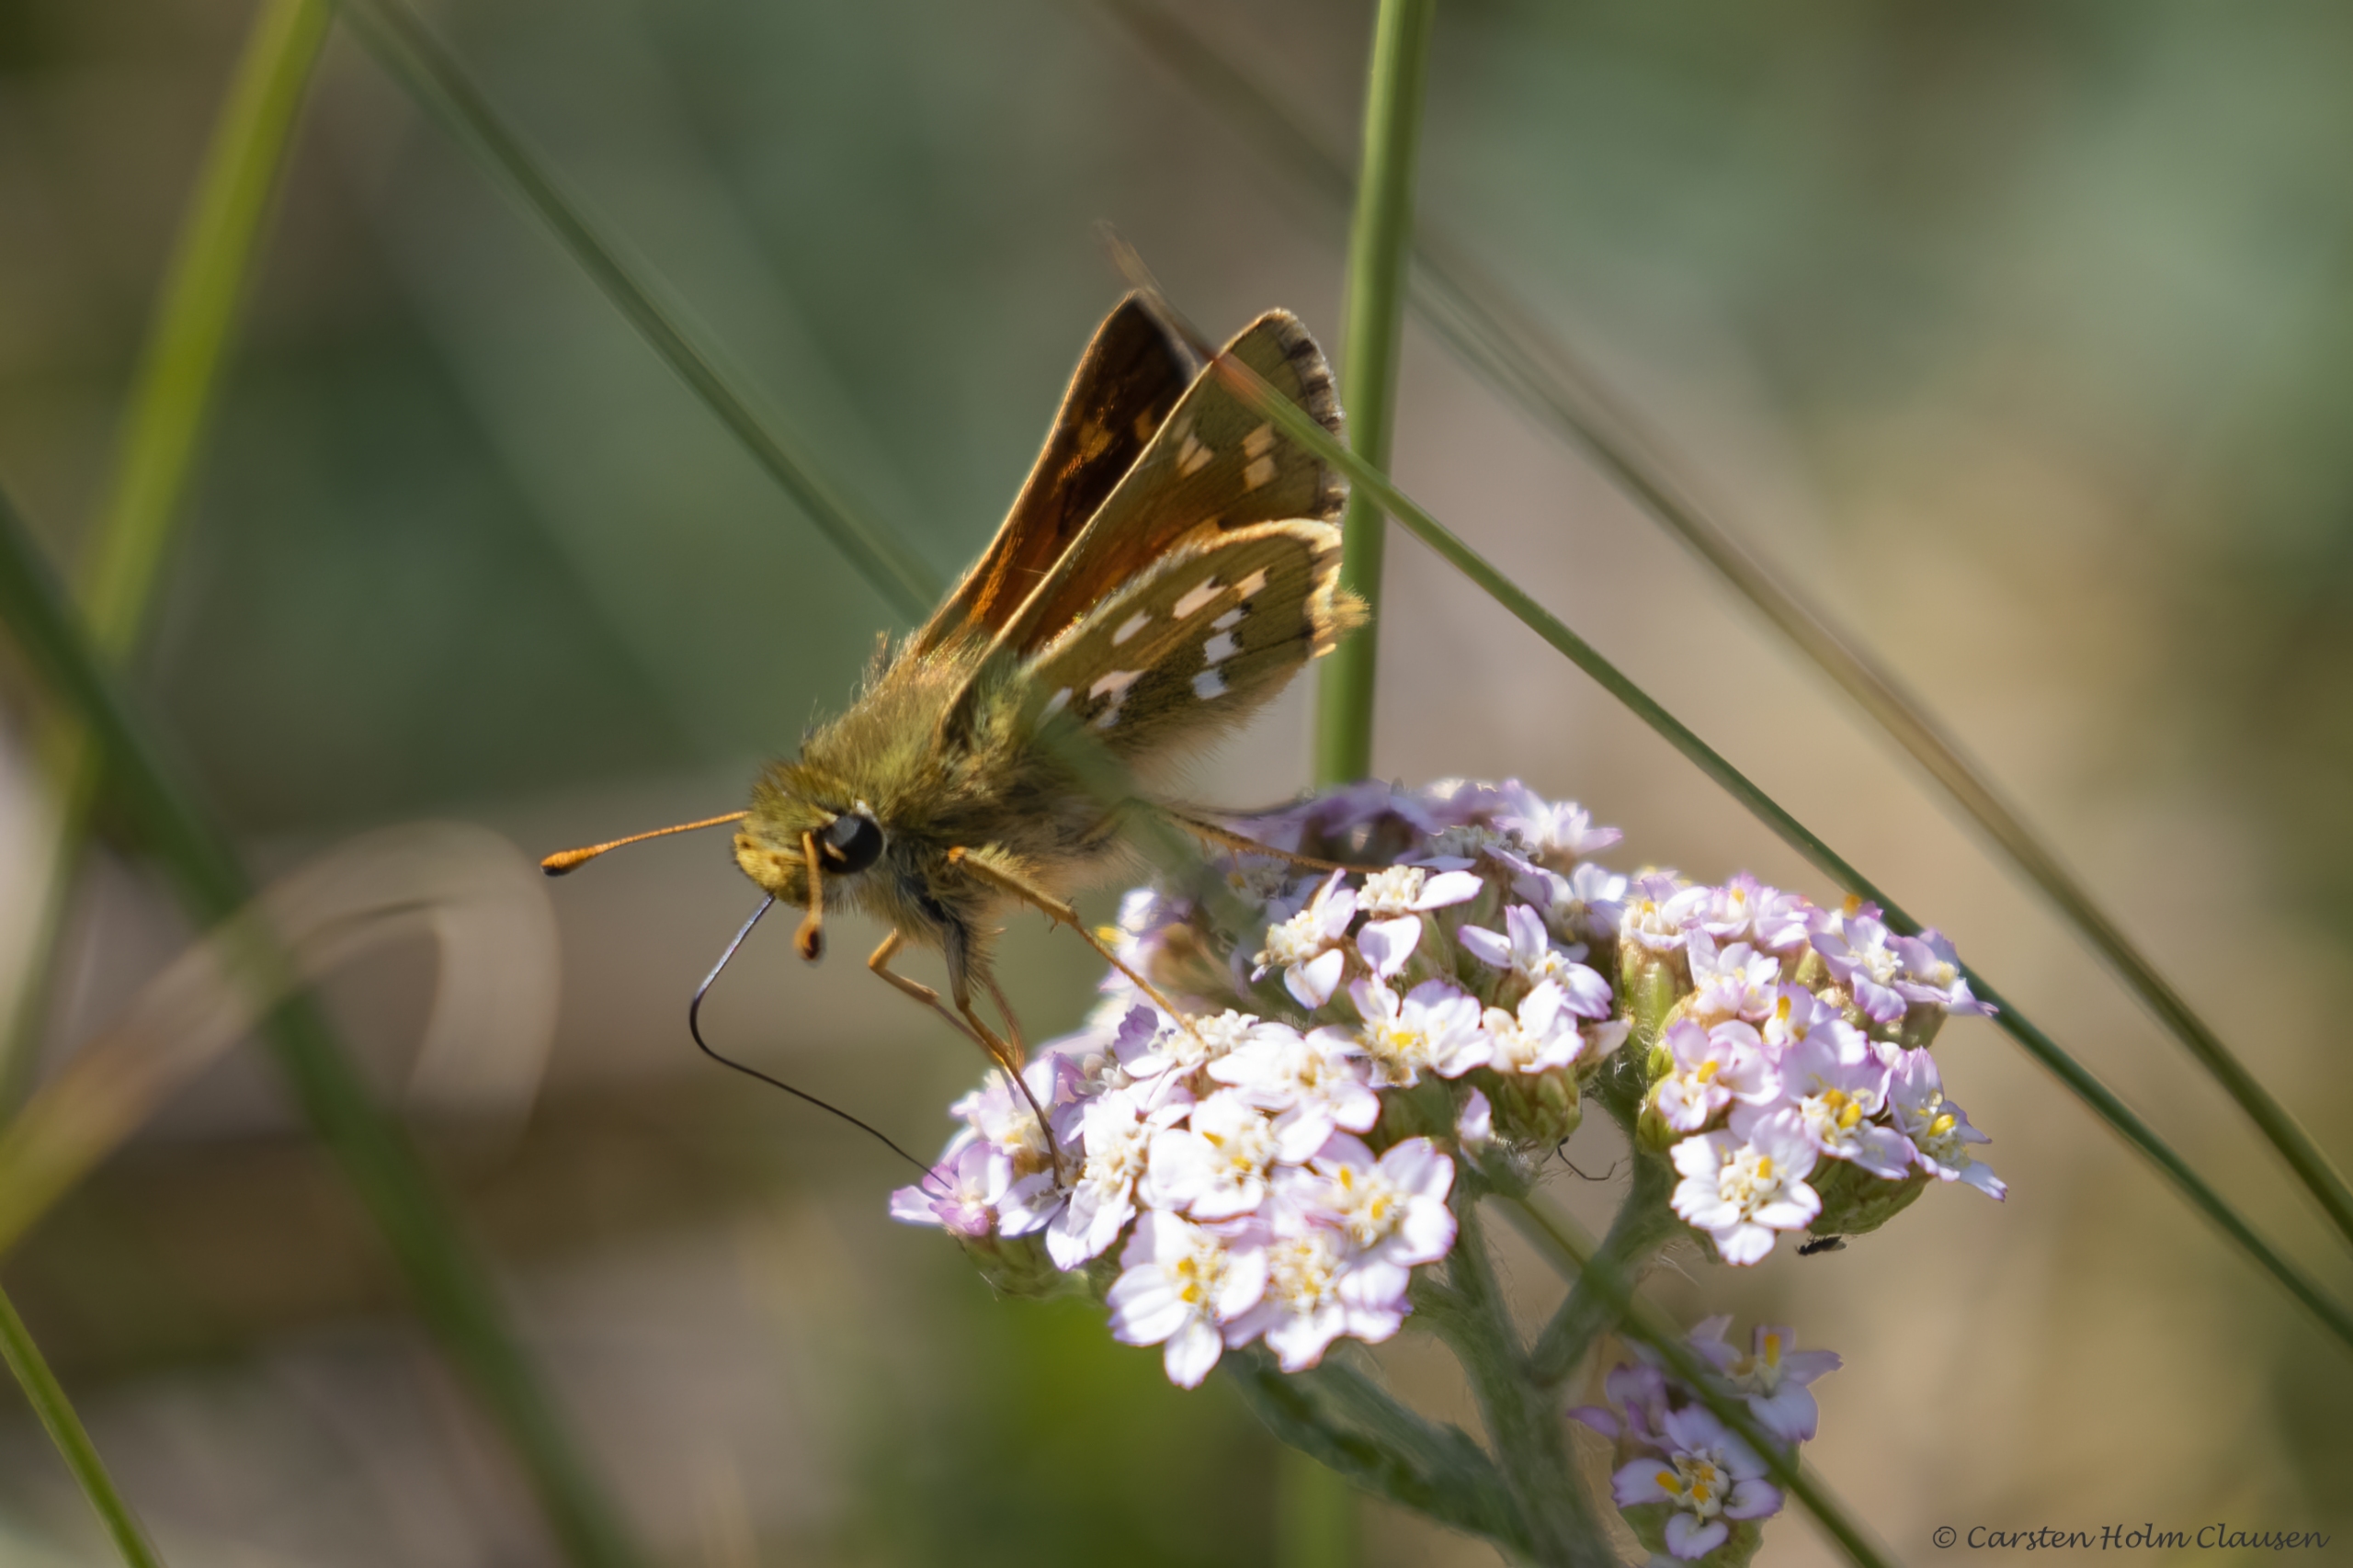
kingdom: Animalia
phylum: Arthropoda
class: Insecta
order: Lepidoptera
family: Hesperiidae
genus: Hesperia
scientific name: Hesperia comma
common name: Kommabredpande
